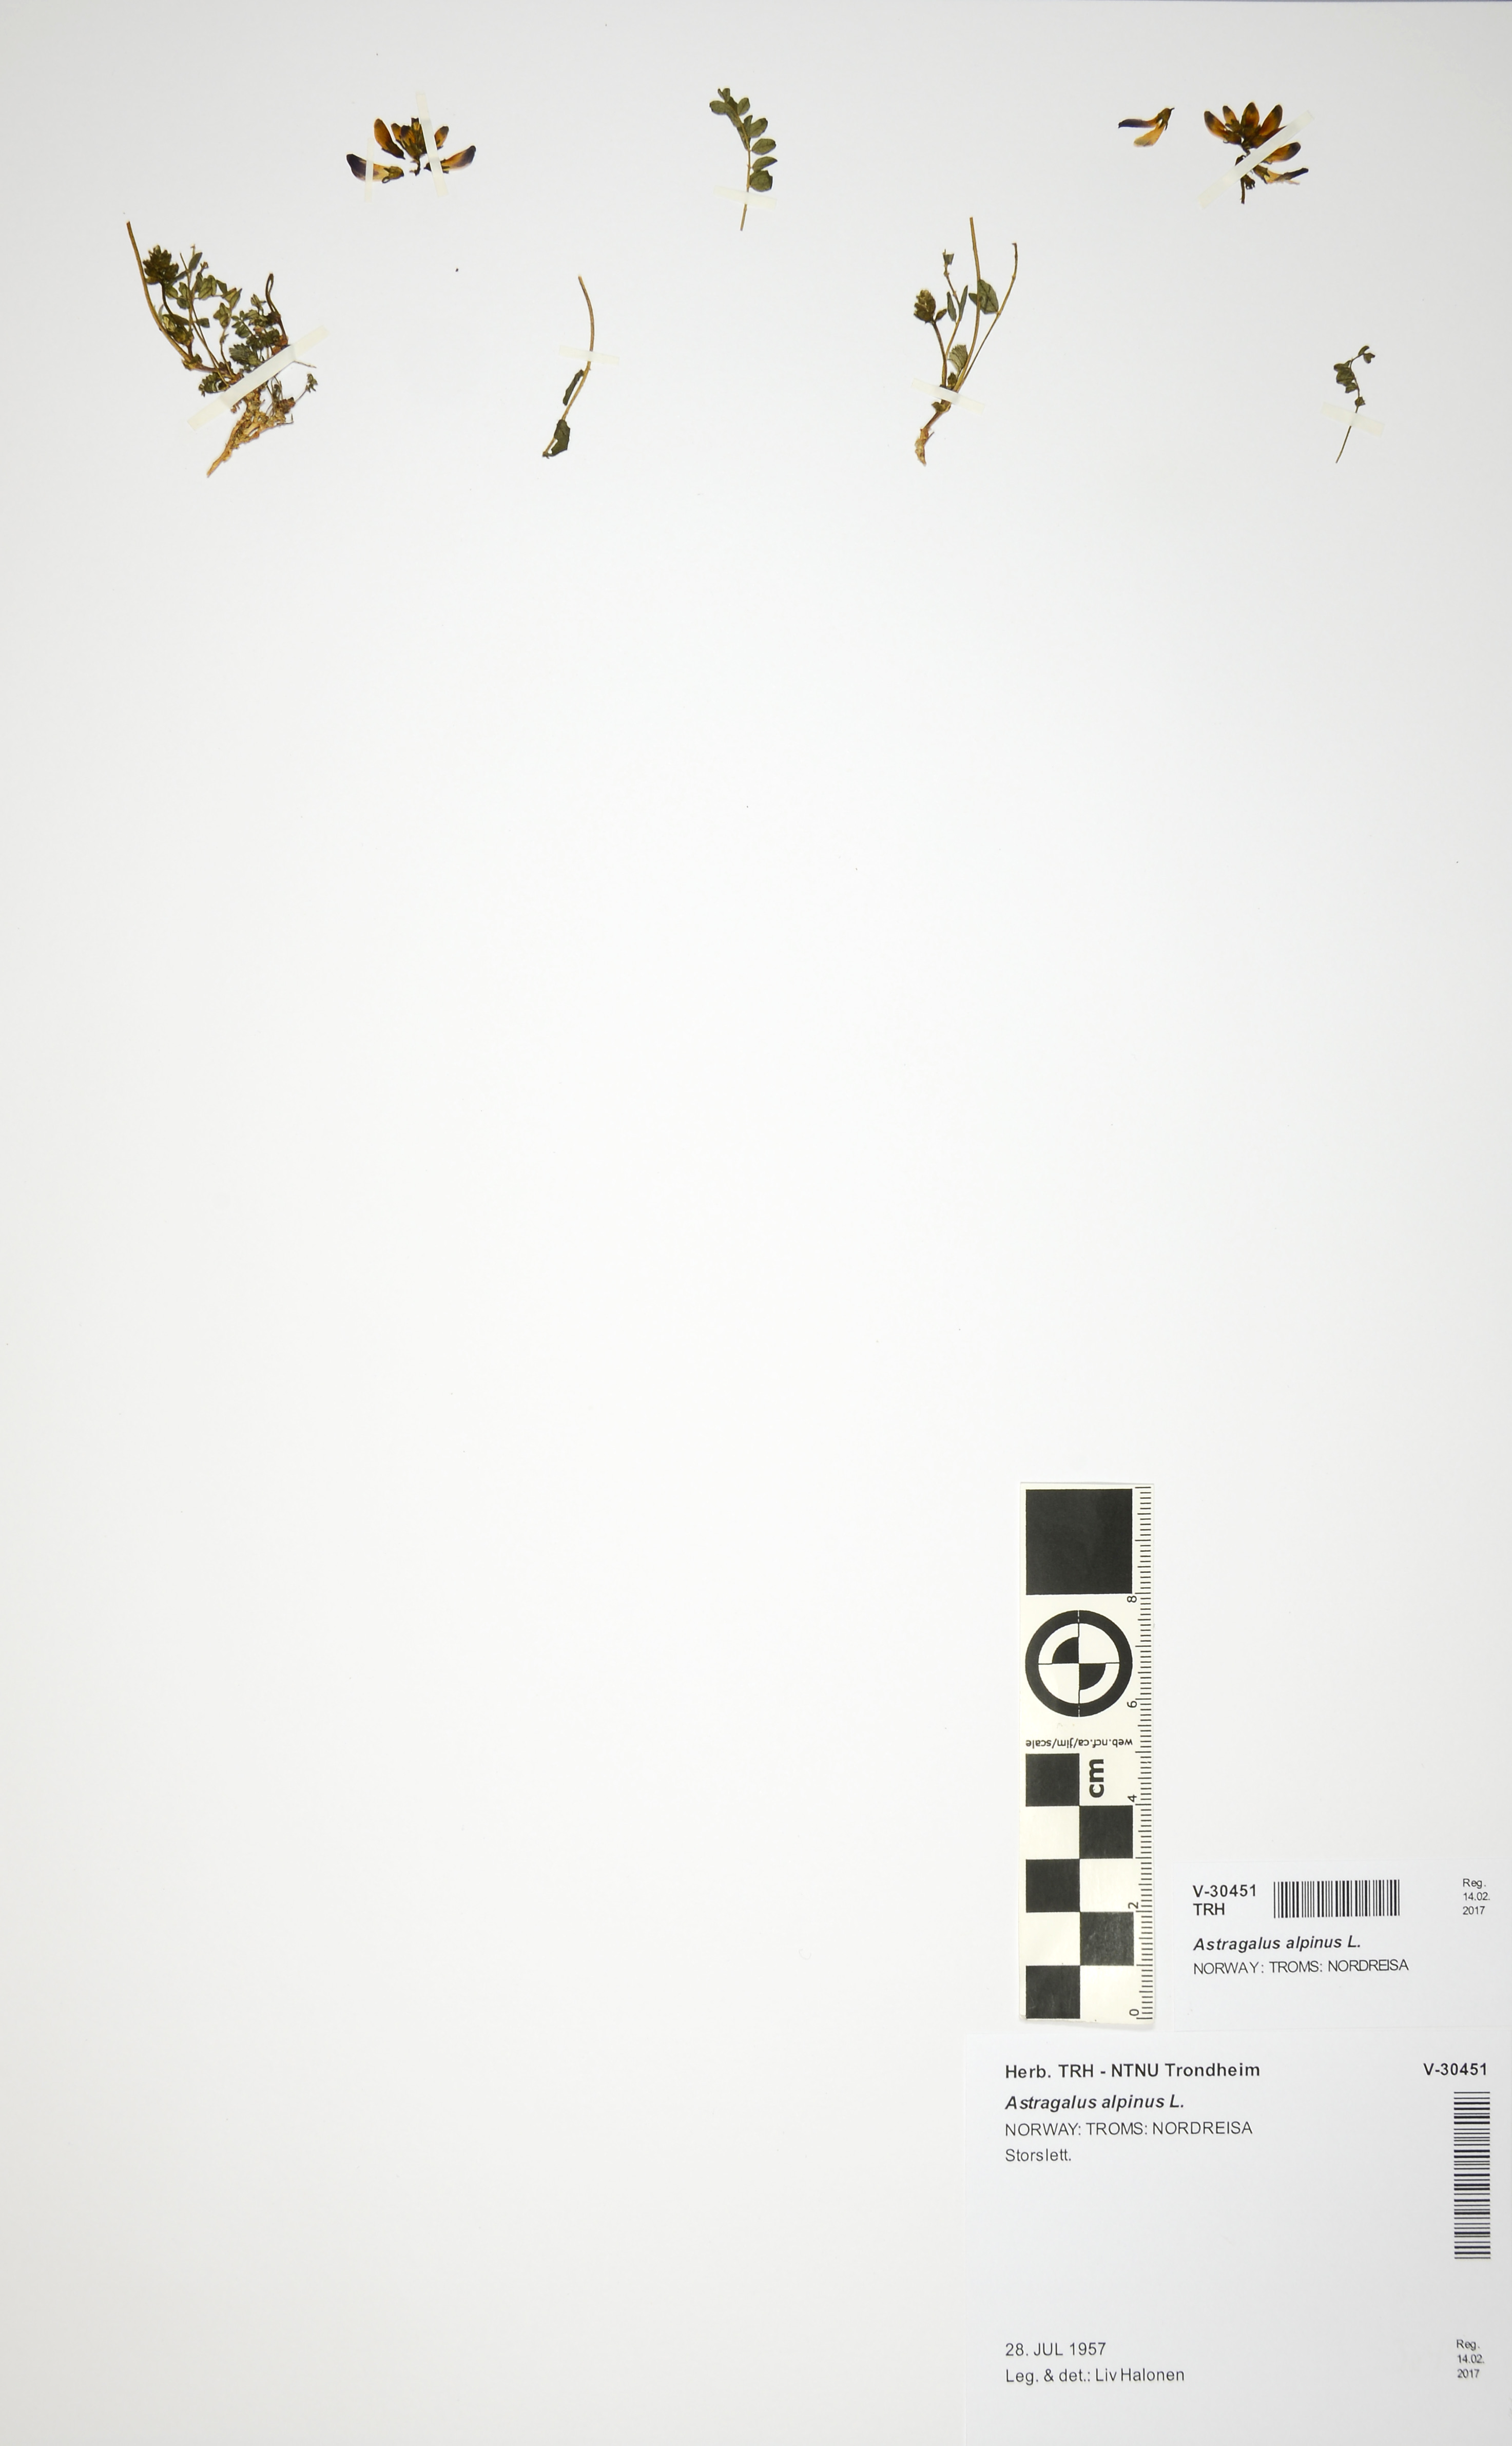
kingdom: Plantae
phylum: Tracheophyta
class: Magnoliopsida
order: Fabales
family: Fabaceae
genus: Astragalus
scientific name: Astragalus alpinus
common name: Alpine milk-vetch
